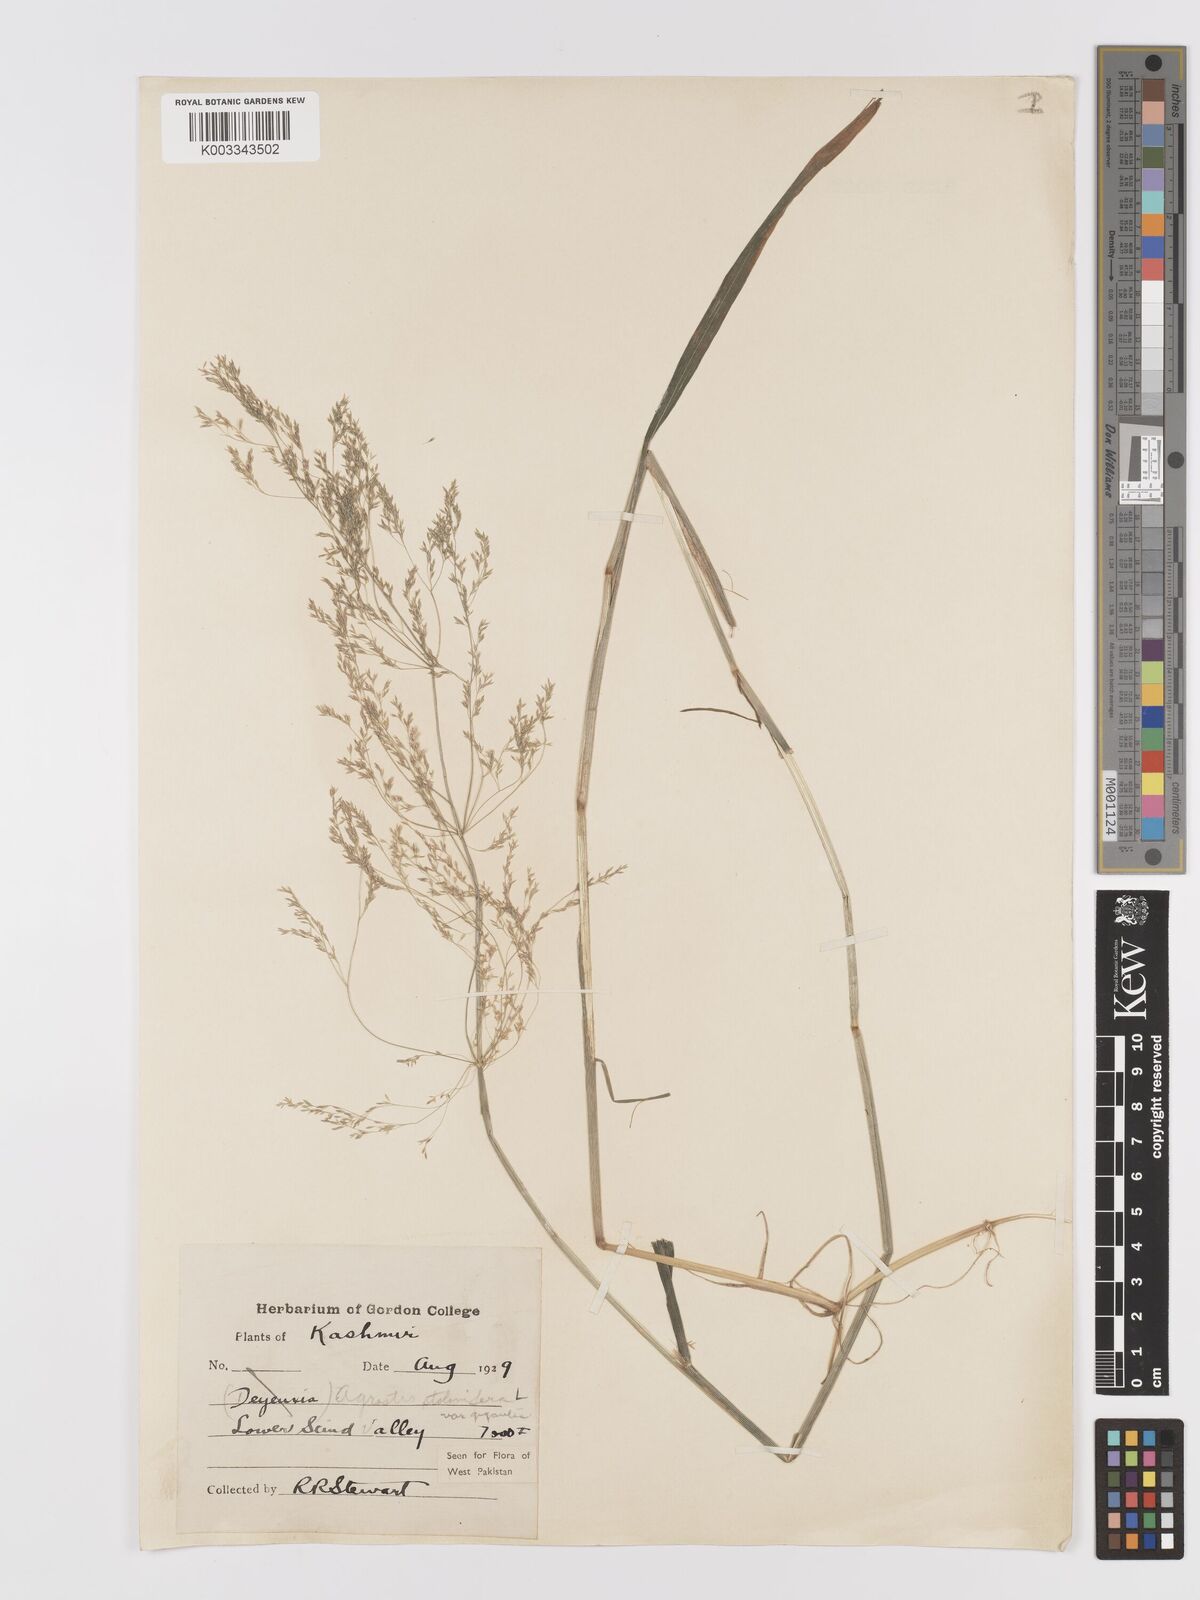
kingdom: Plantae
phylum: Tracheophyta
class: Liliopsida
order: Poales
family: Poaceae
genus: Agrostis
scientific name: Agrostis gigantea
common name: Black bent
